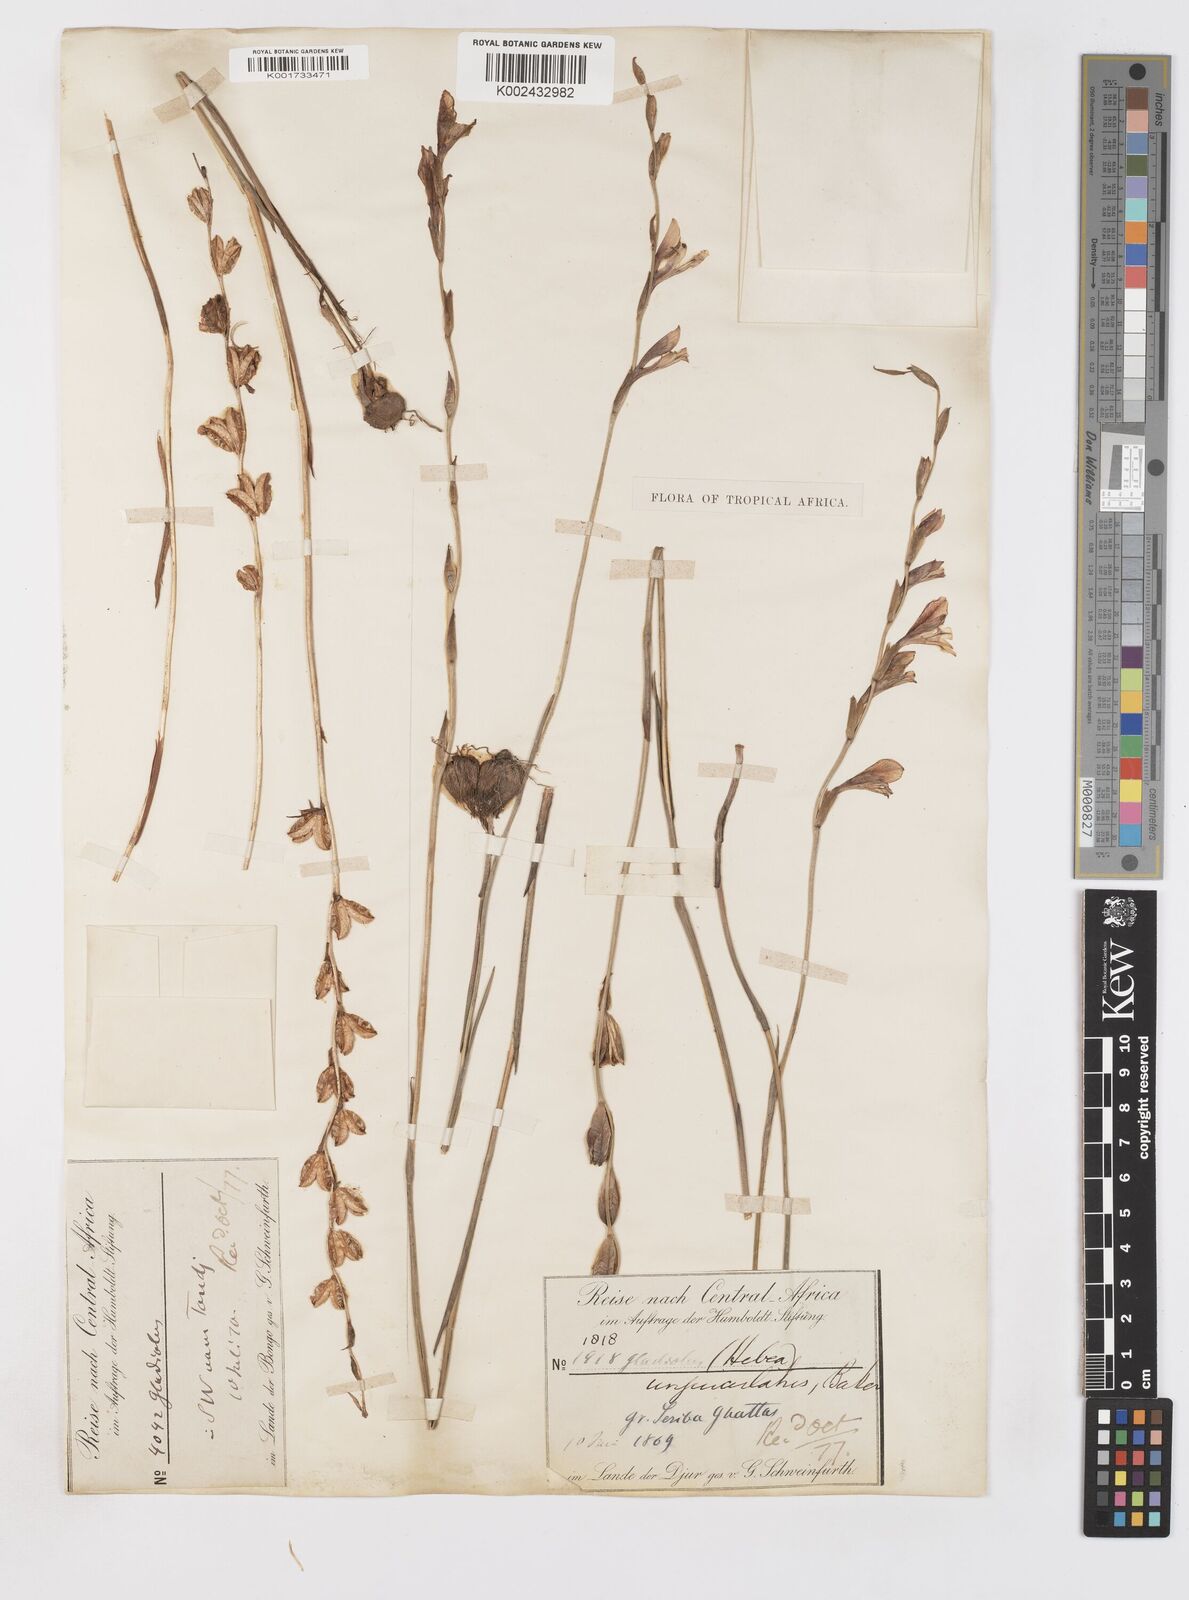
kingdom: Plantae
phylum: Tracheophyta
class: Liliopsida
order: Asparagales
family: Iridaceae
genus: Gladiolus
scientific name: Gladiolus unguiculatus
